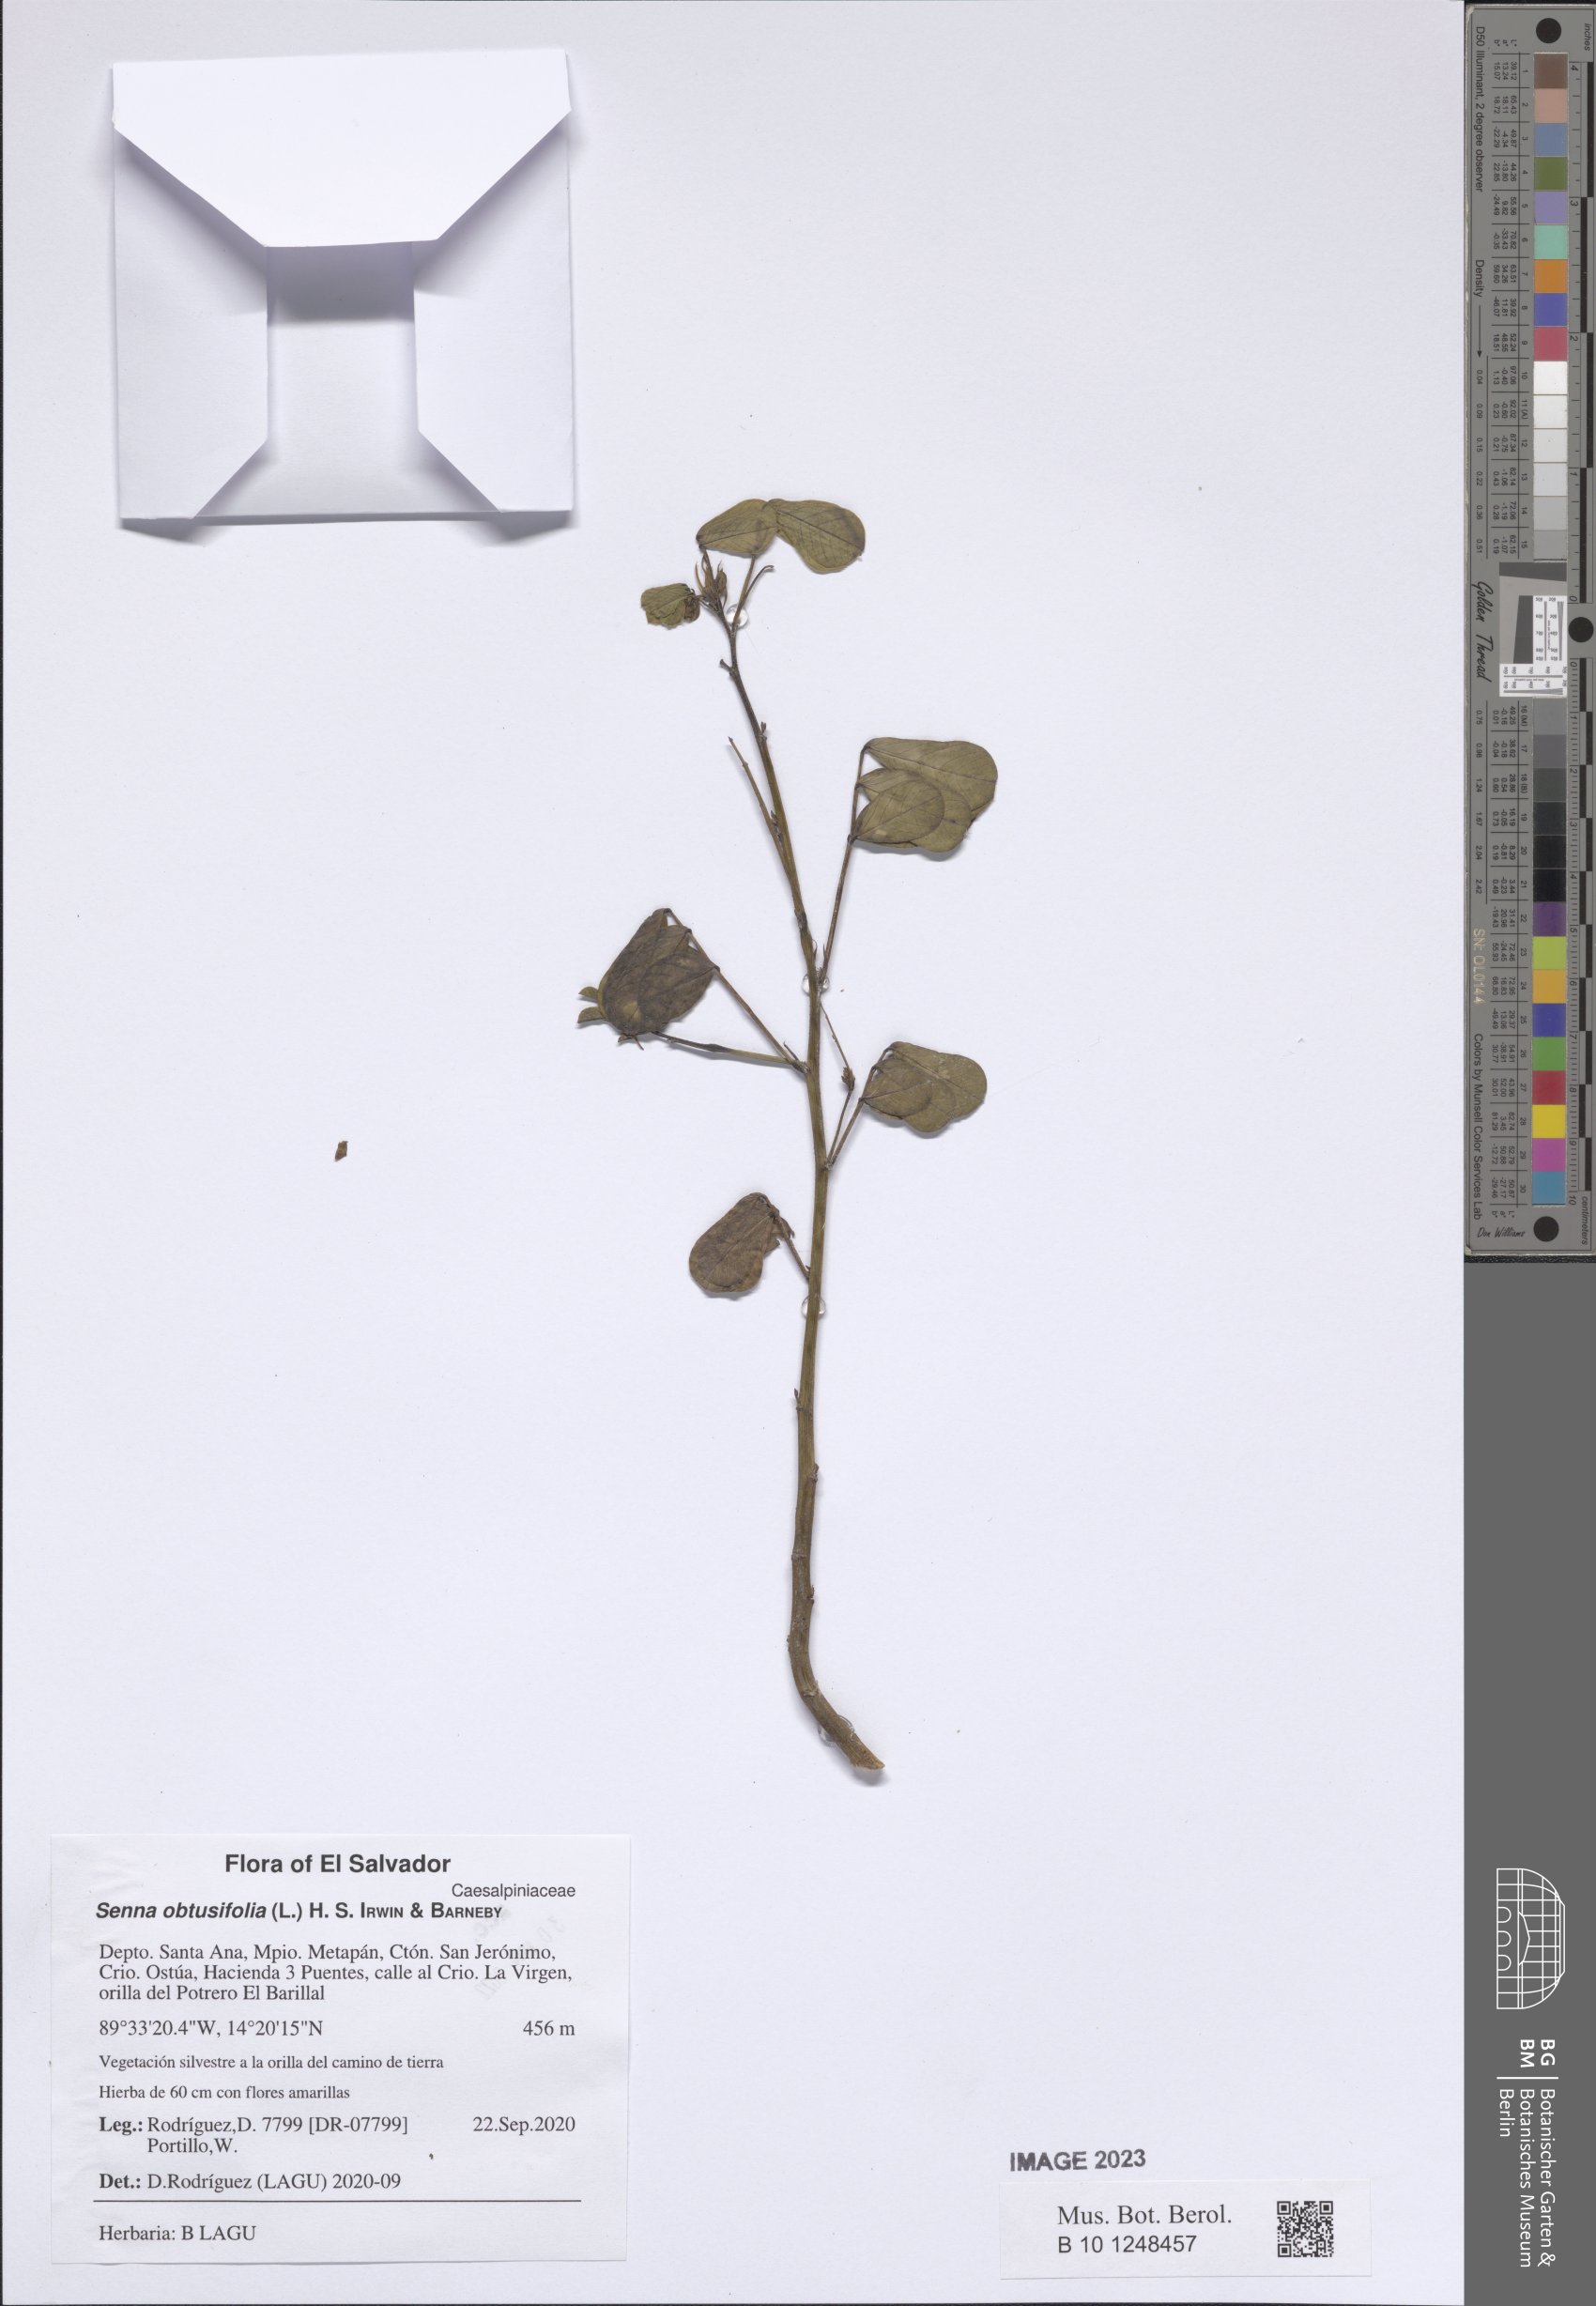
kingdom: Plantae
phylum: Tracheophyta
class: Magnoliopsida
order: Fabales
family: Fabaceae
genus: Senna
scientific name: Senna obtusifolia
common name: Java-bean
